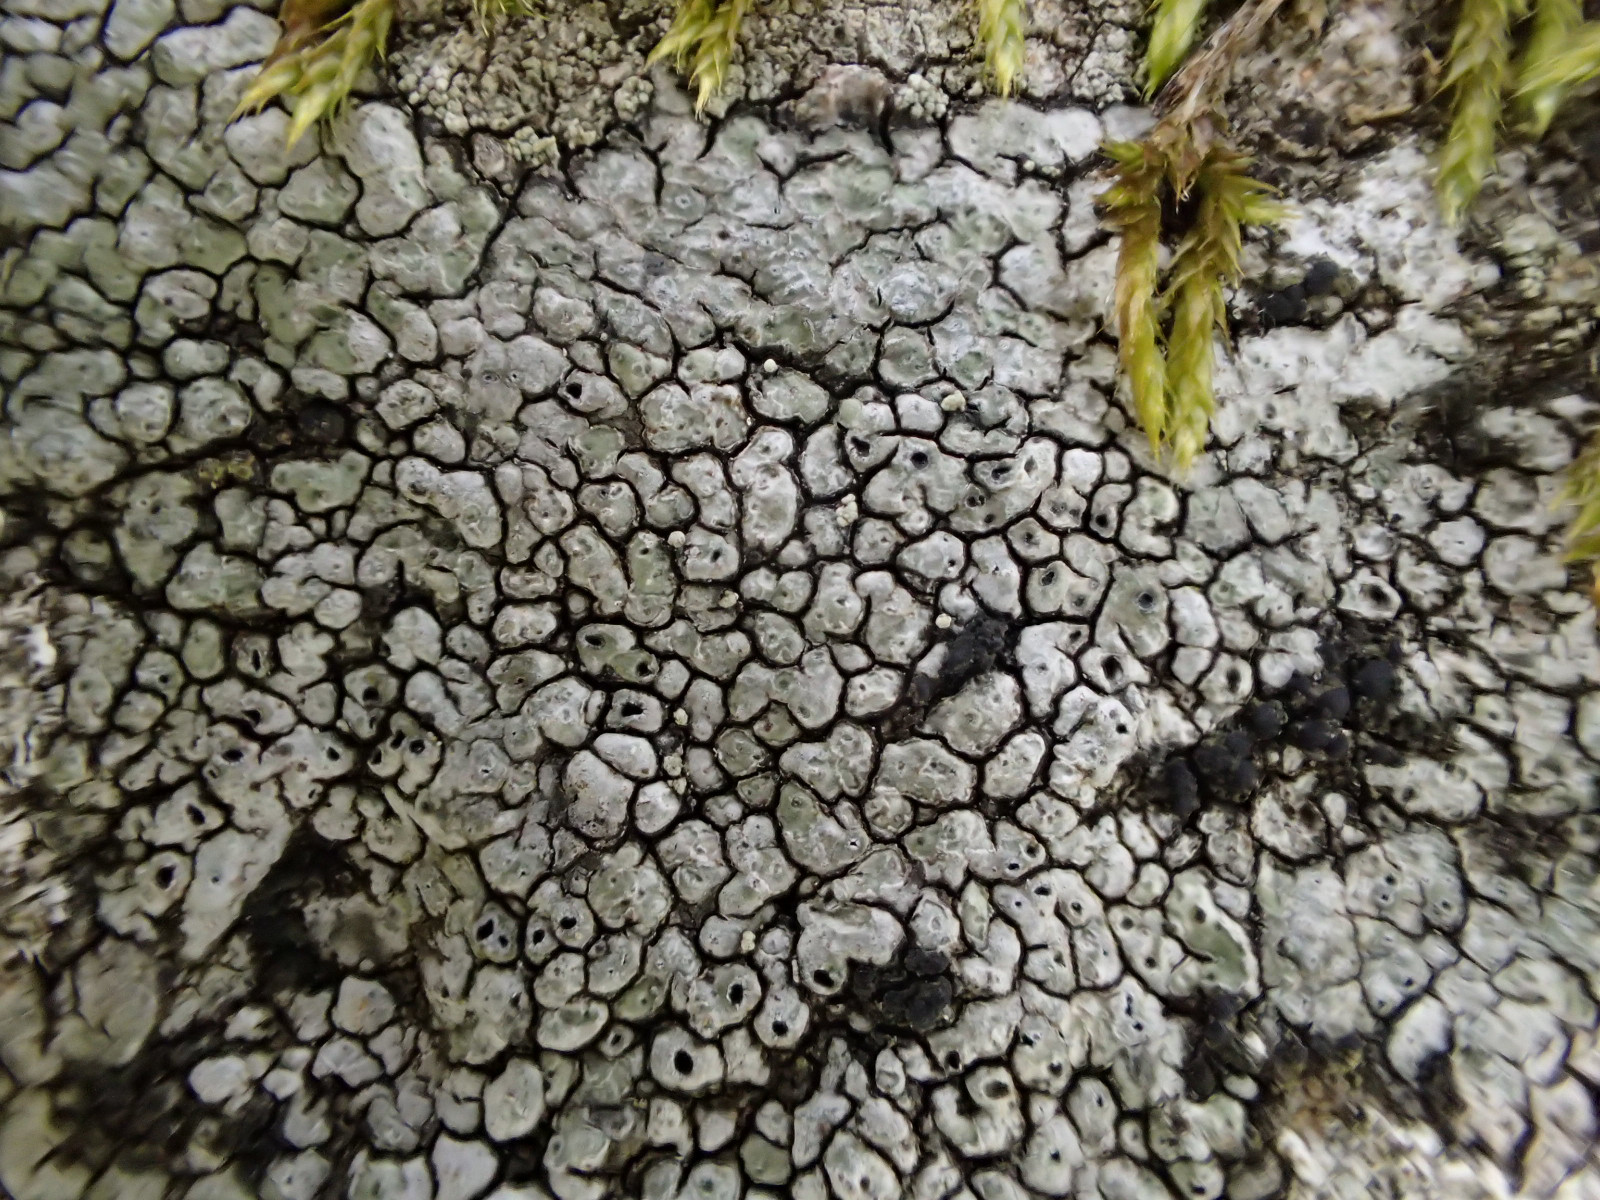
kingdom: Fungi
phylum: Ascomycota
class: Lecanoromycetes
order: Pertusariales
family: Megasporaceae
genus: Circinaria
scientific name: Circinaria caesiocinerea
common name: fuglestens-hulskivelav
